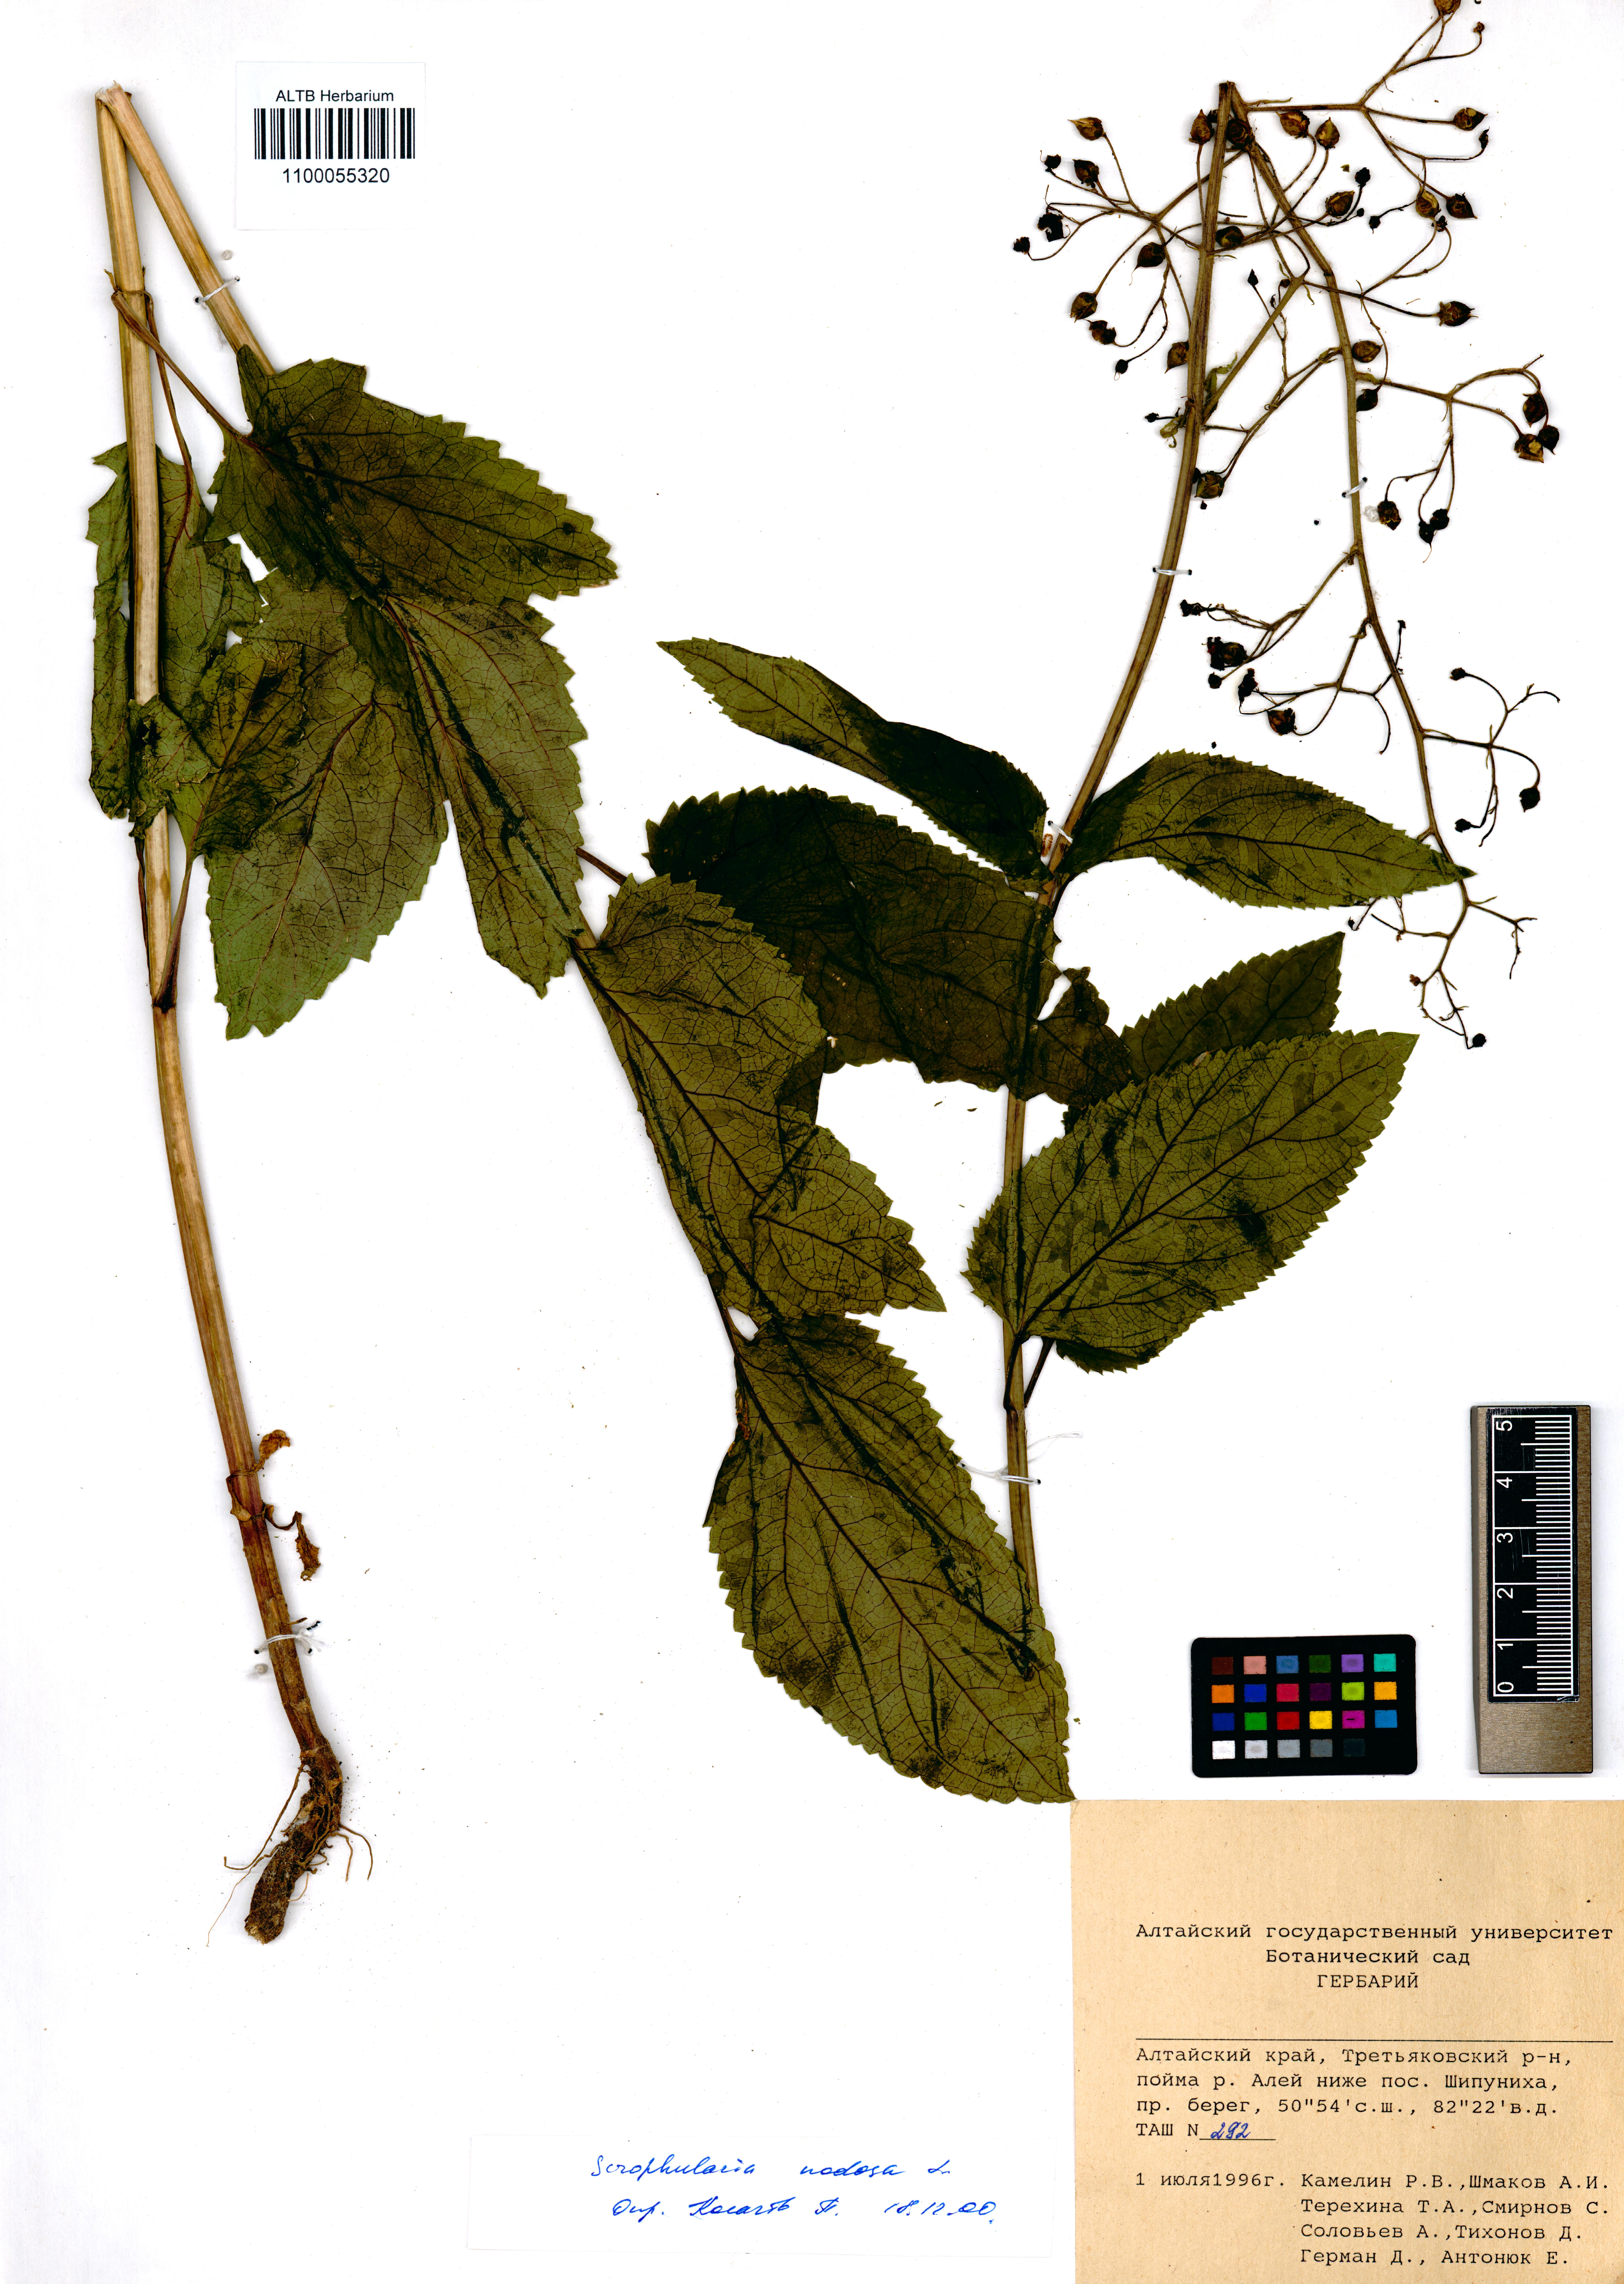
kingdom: Plantae
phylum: Tracheophyta
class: Magnoliopsida
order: Lamiales
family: Scrophulariaceae
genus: Scrophularia
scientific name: Scrophularia nodosa
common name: Common figwort
